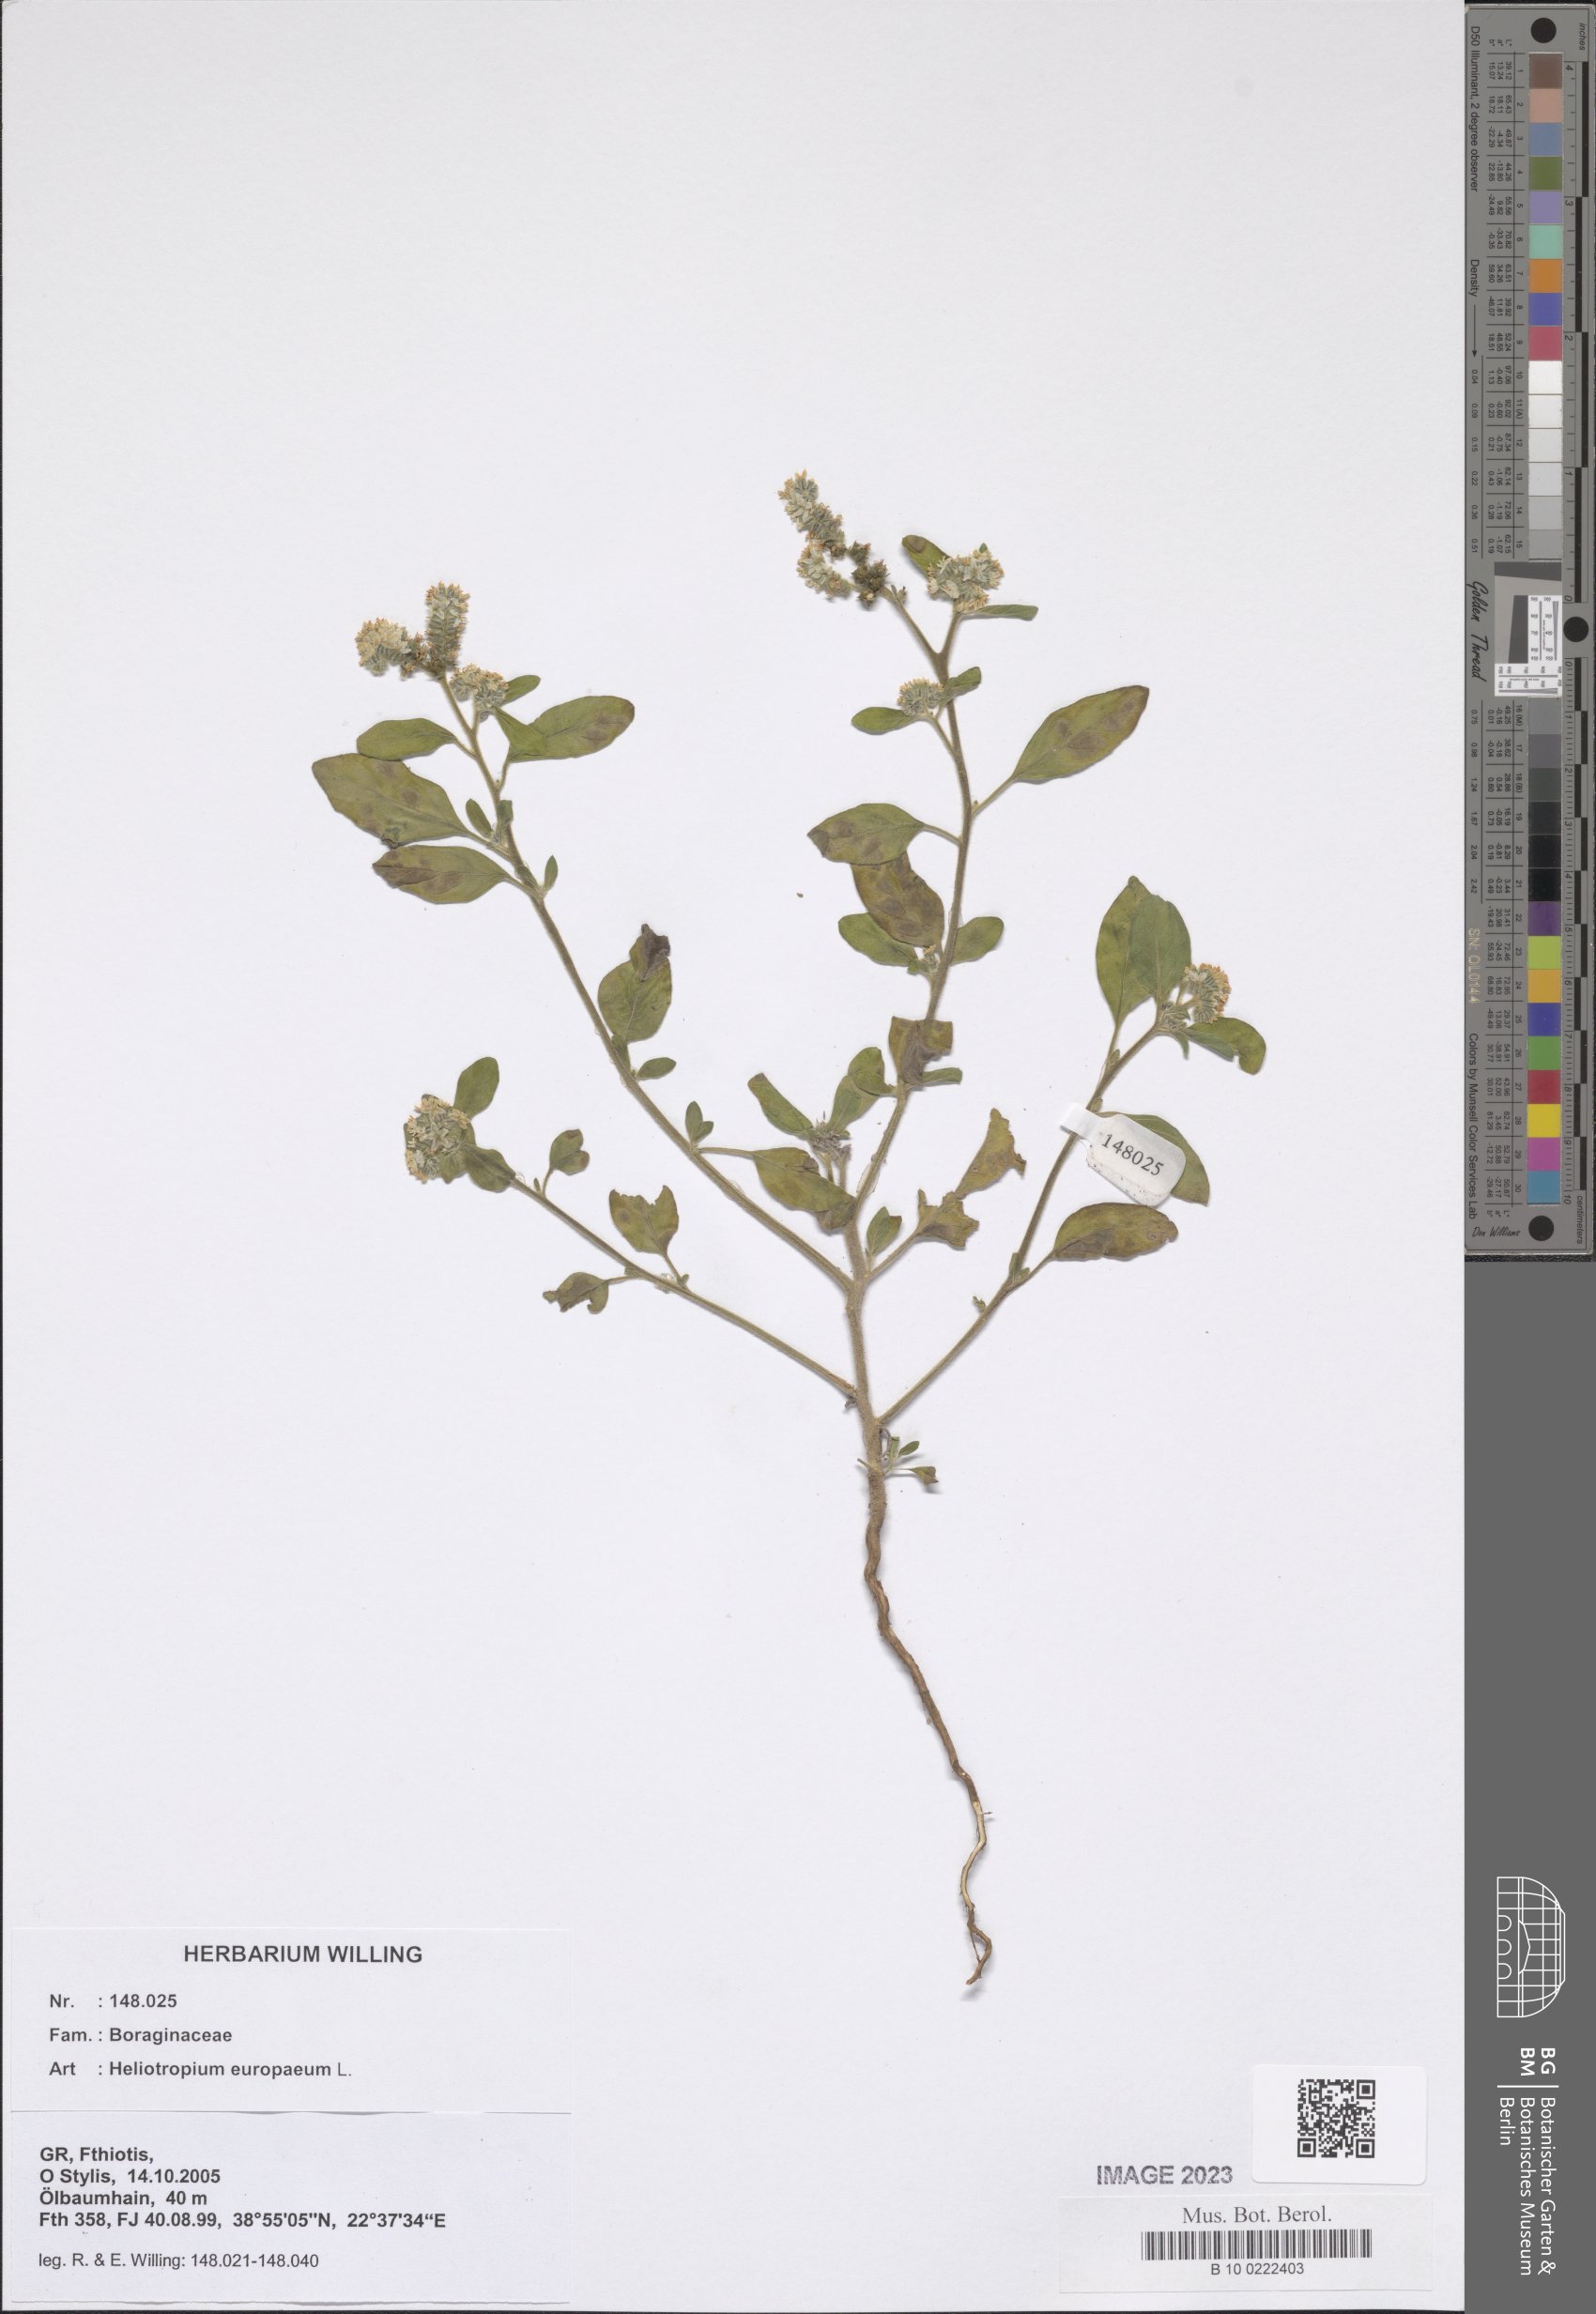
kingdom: Plantae
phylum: Tracheophyta
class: Magnoliopsida
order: Boraginales
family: Heliotropiaceae
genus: Heliotropium
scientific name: Heliotropium europaeum
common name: European heliotrope
